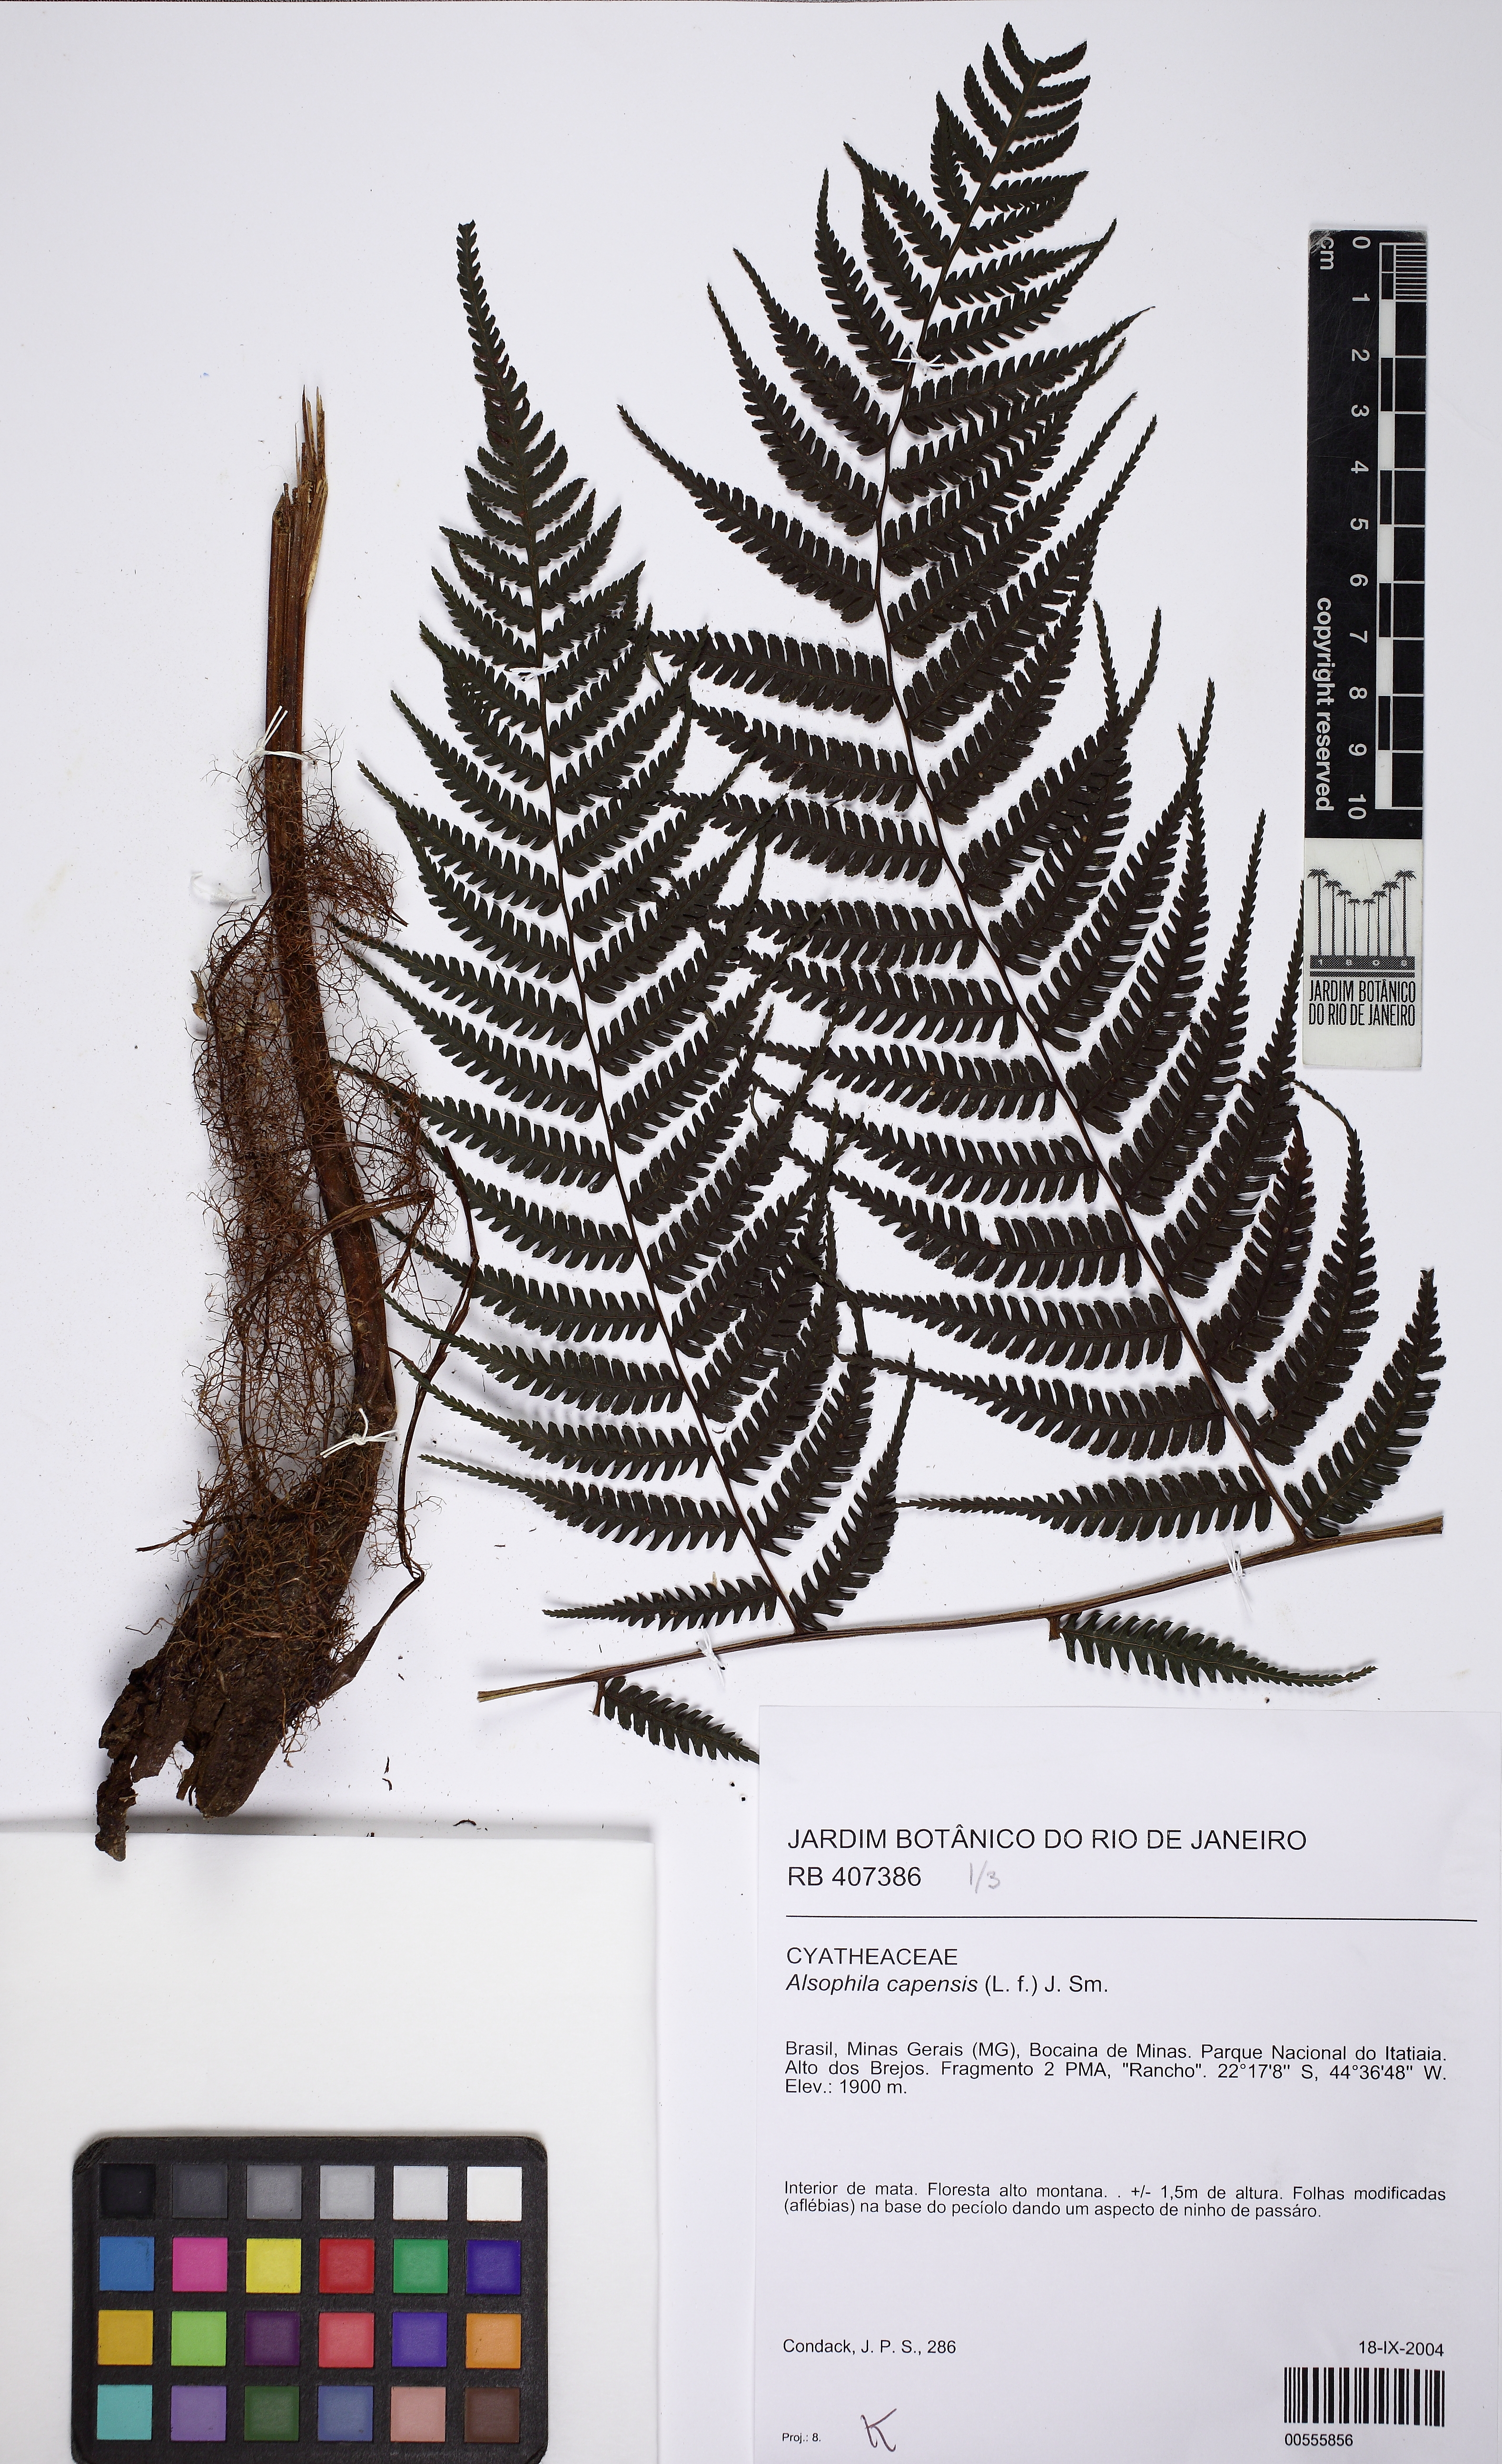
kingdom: Plantae
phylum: Tracheophyta
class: Polypodiopsida
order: Cyatheales
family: Cyatheaceae
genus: Gymnosphaera
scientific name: Gymnosphaera capensis
